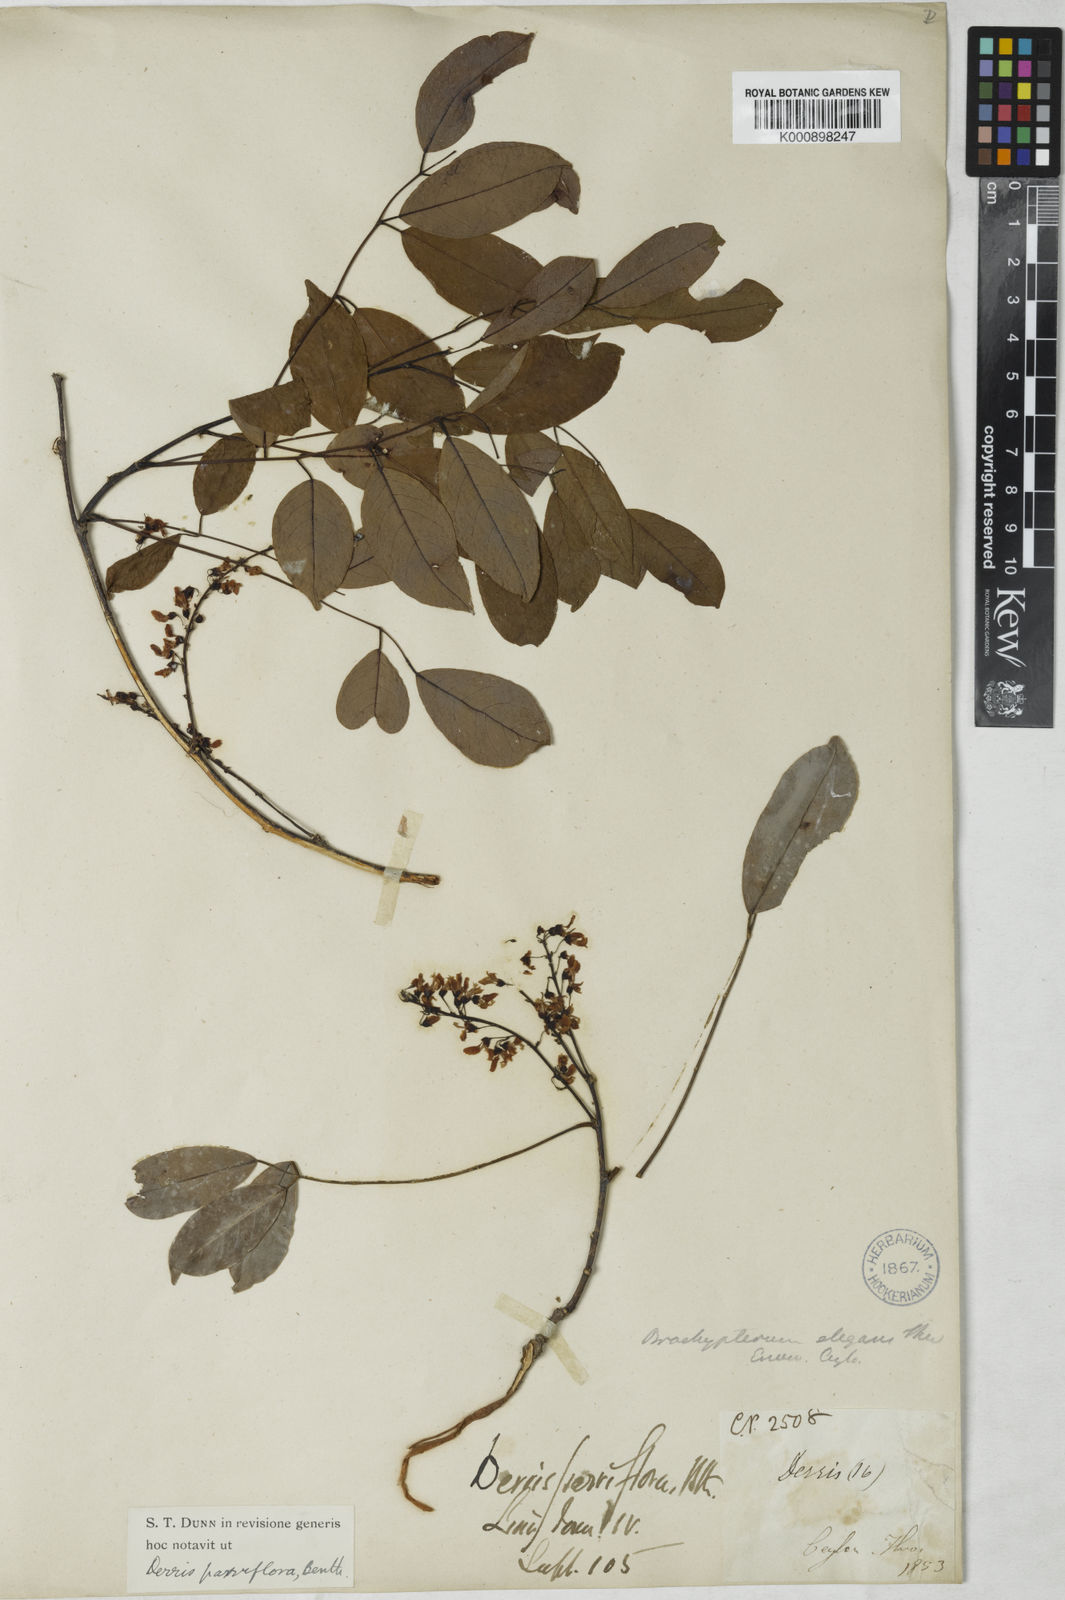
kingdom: Plantae
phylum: Tracheophyta
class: Magnoliopsida
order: Fabales
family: Fabaceae
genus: Derris
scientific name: Derris parviflora
